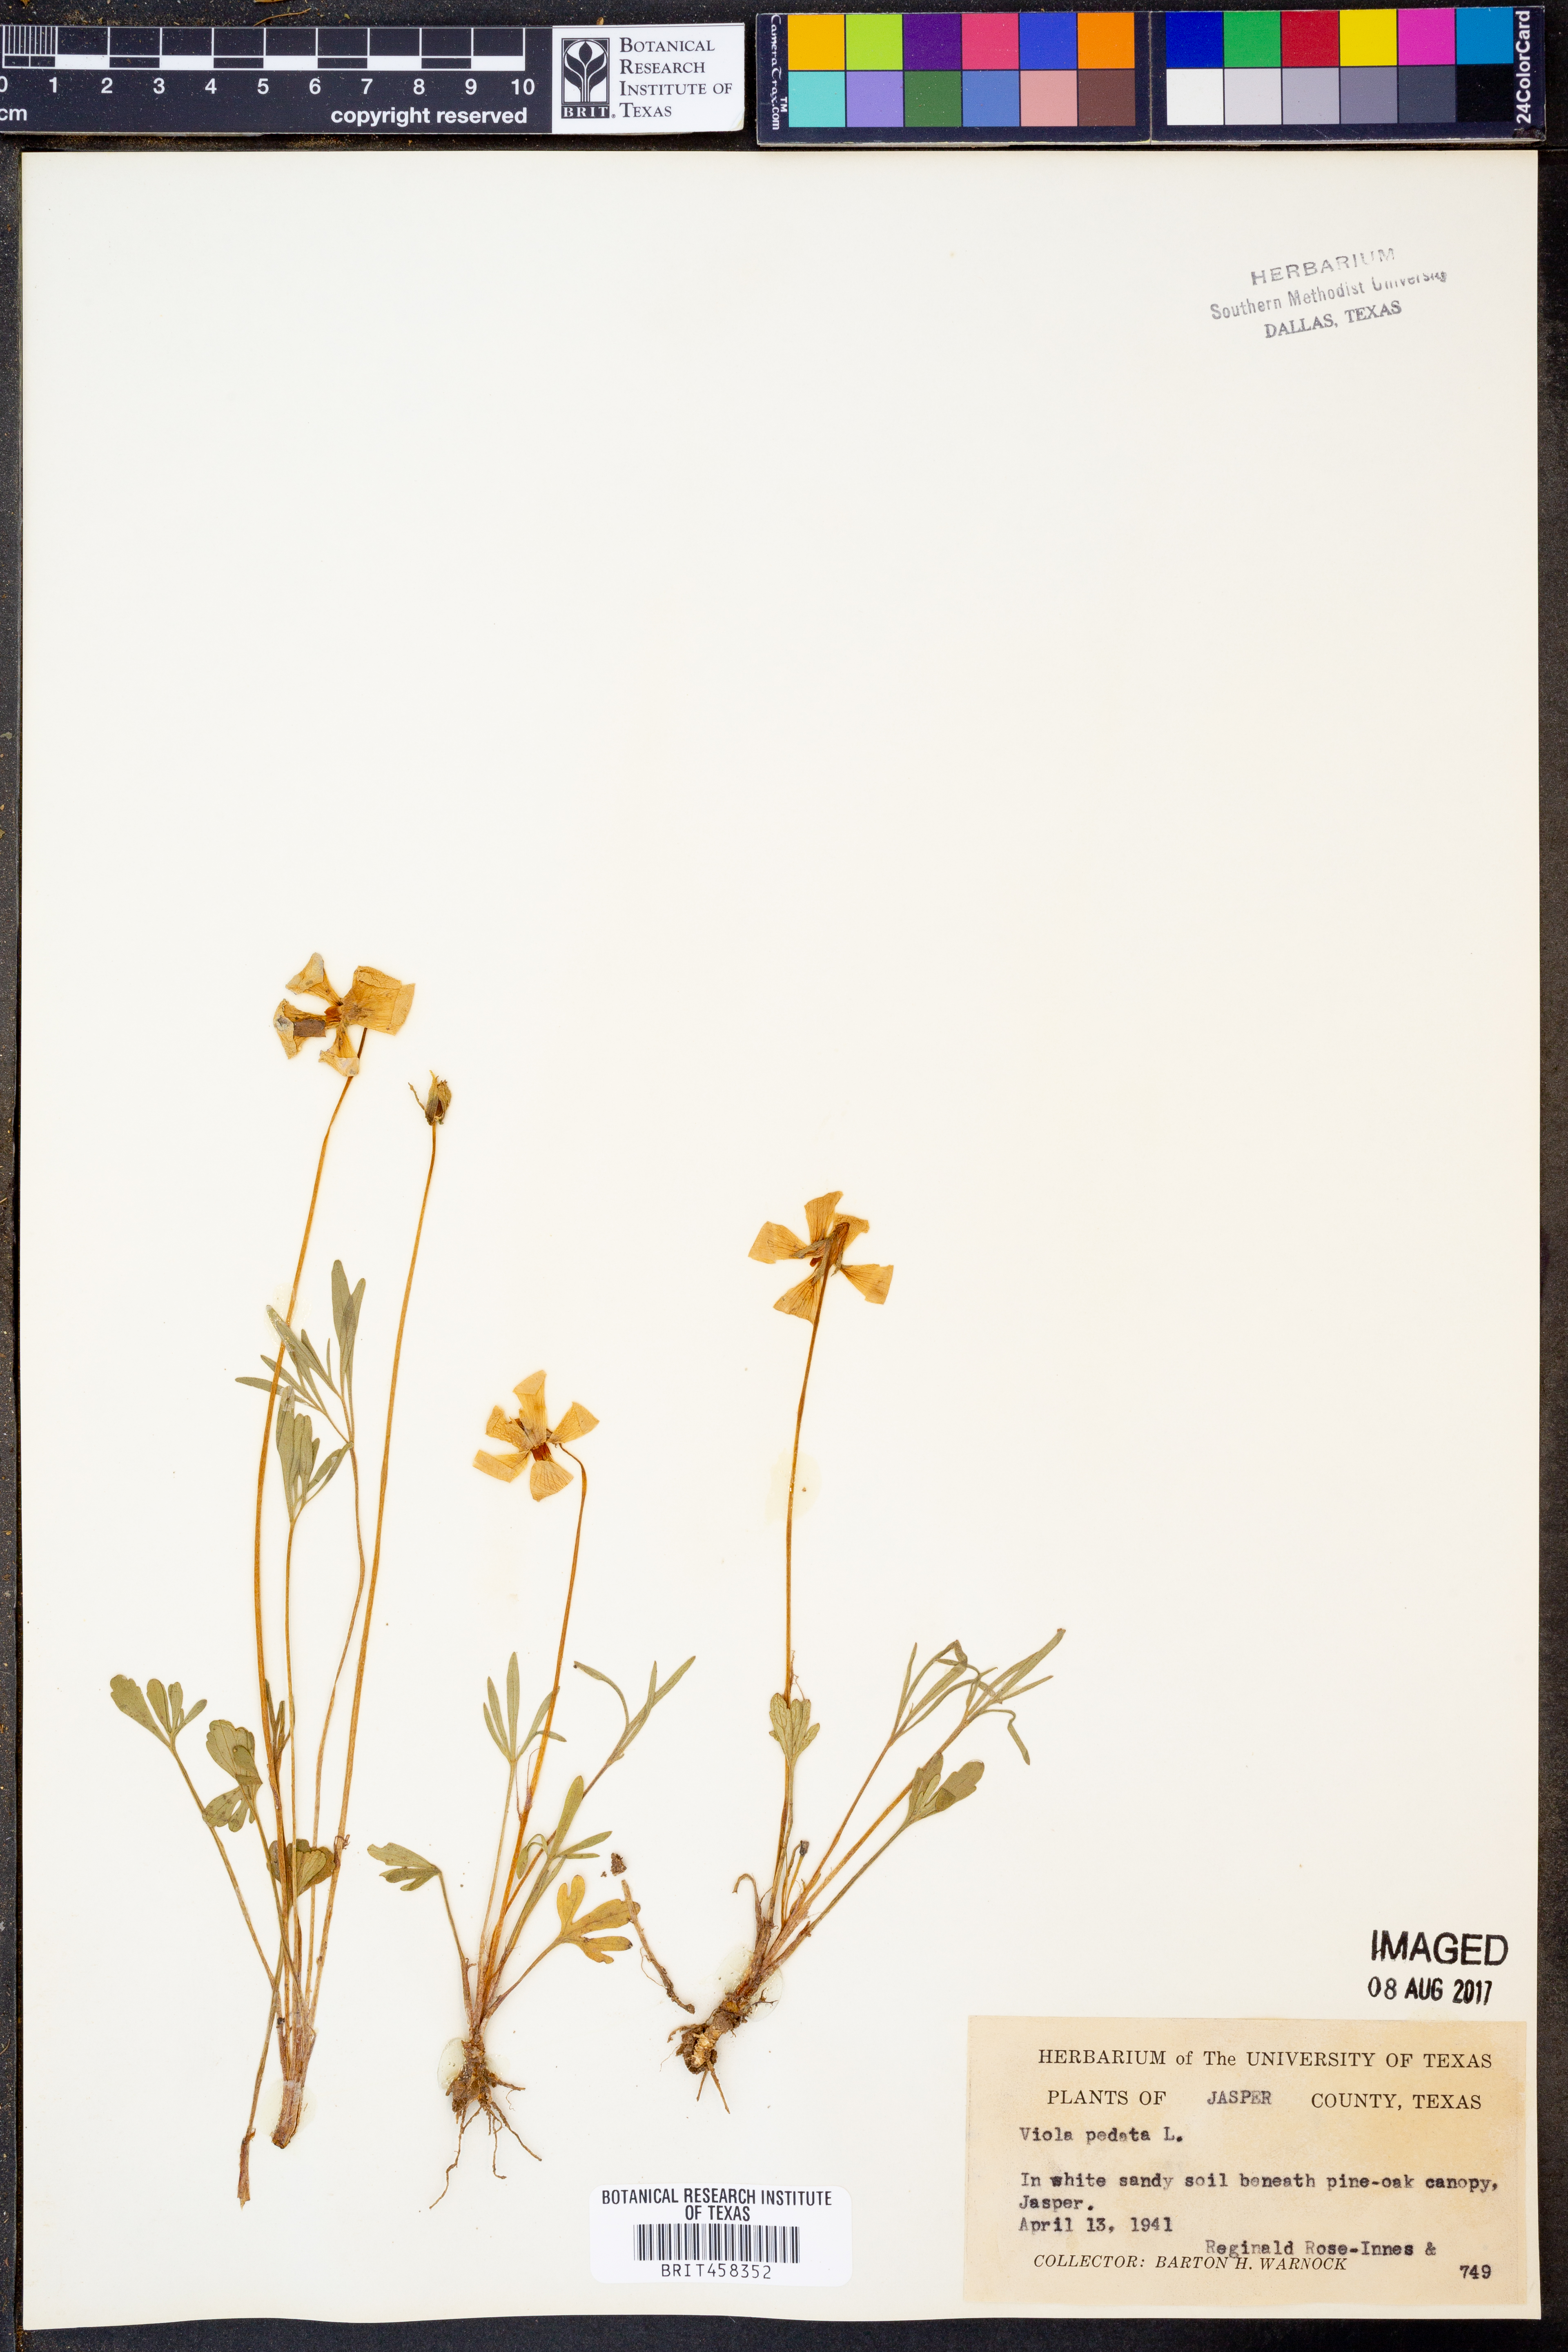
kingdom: Plantae
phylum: Tracheophyta
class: Magnoliopsida
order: Malpighiales
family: Violaceae
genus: Viola
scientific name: Viola pedata
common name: Pansy violet
